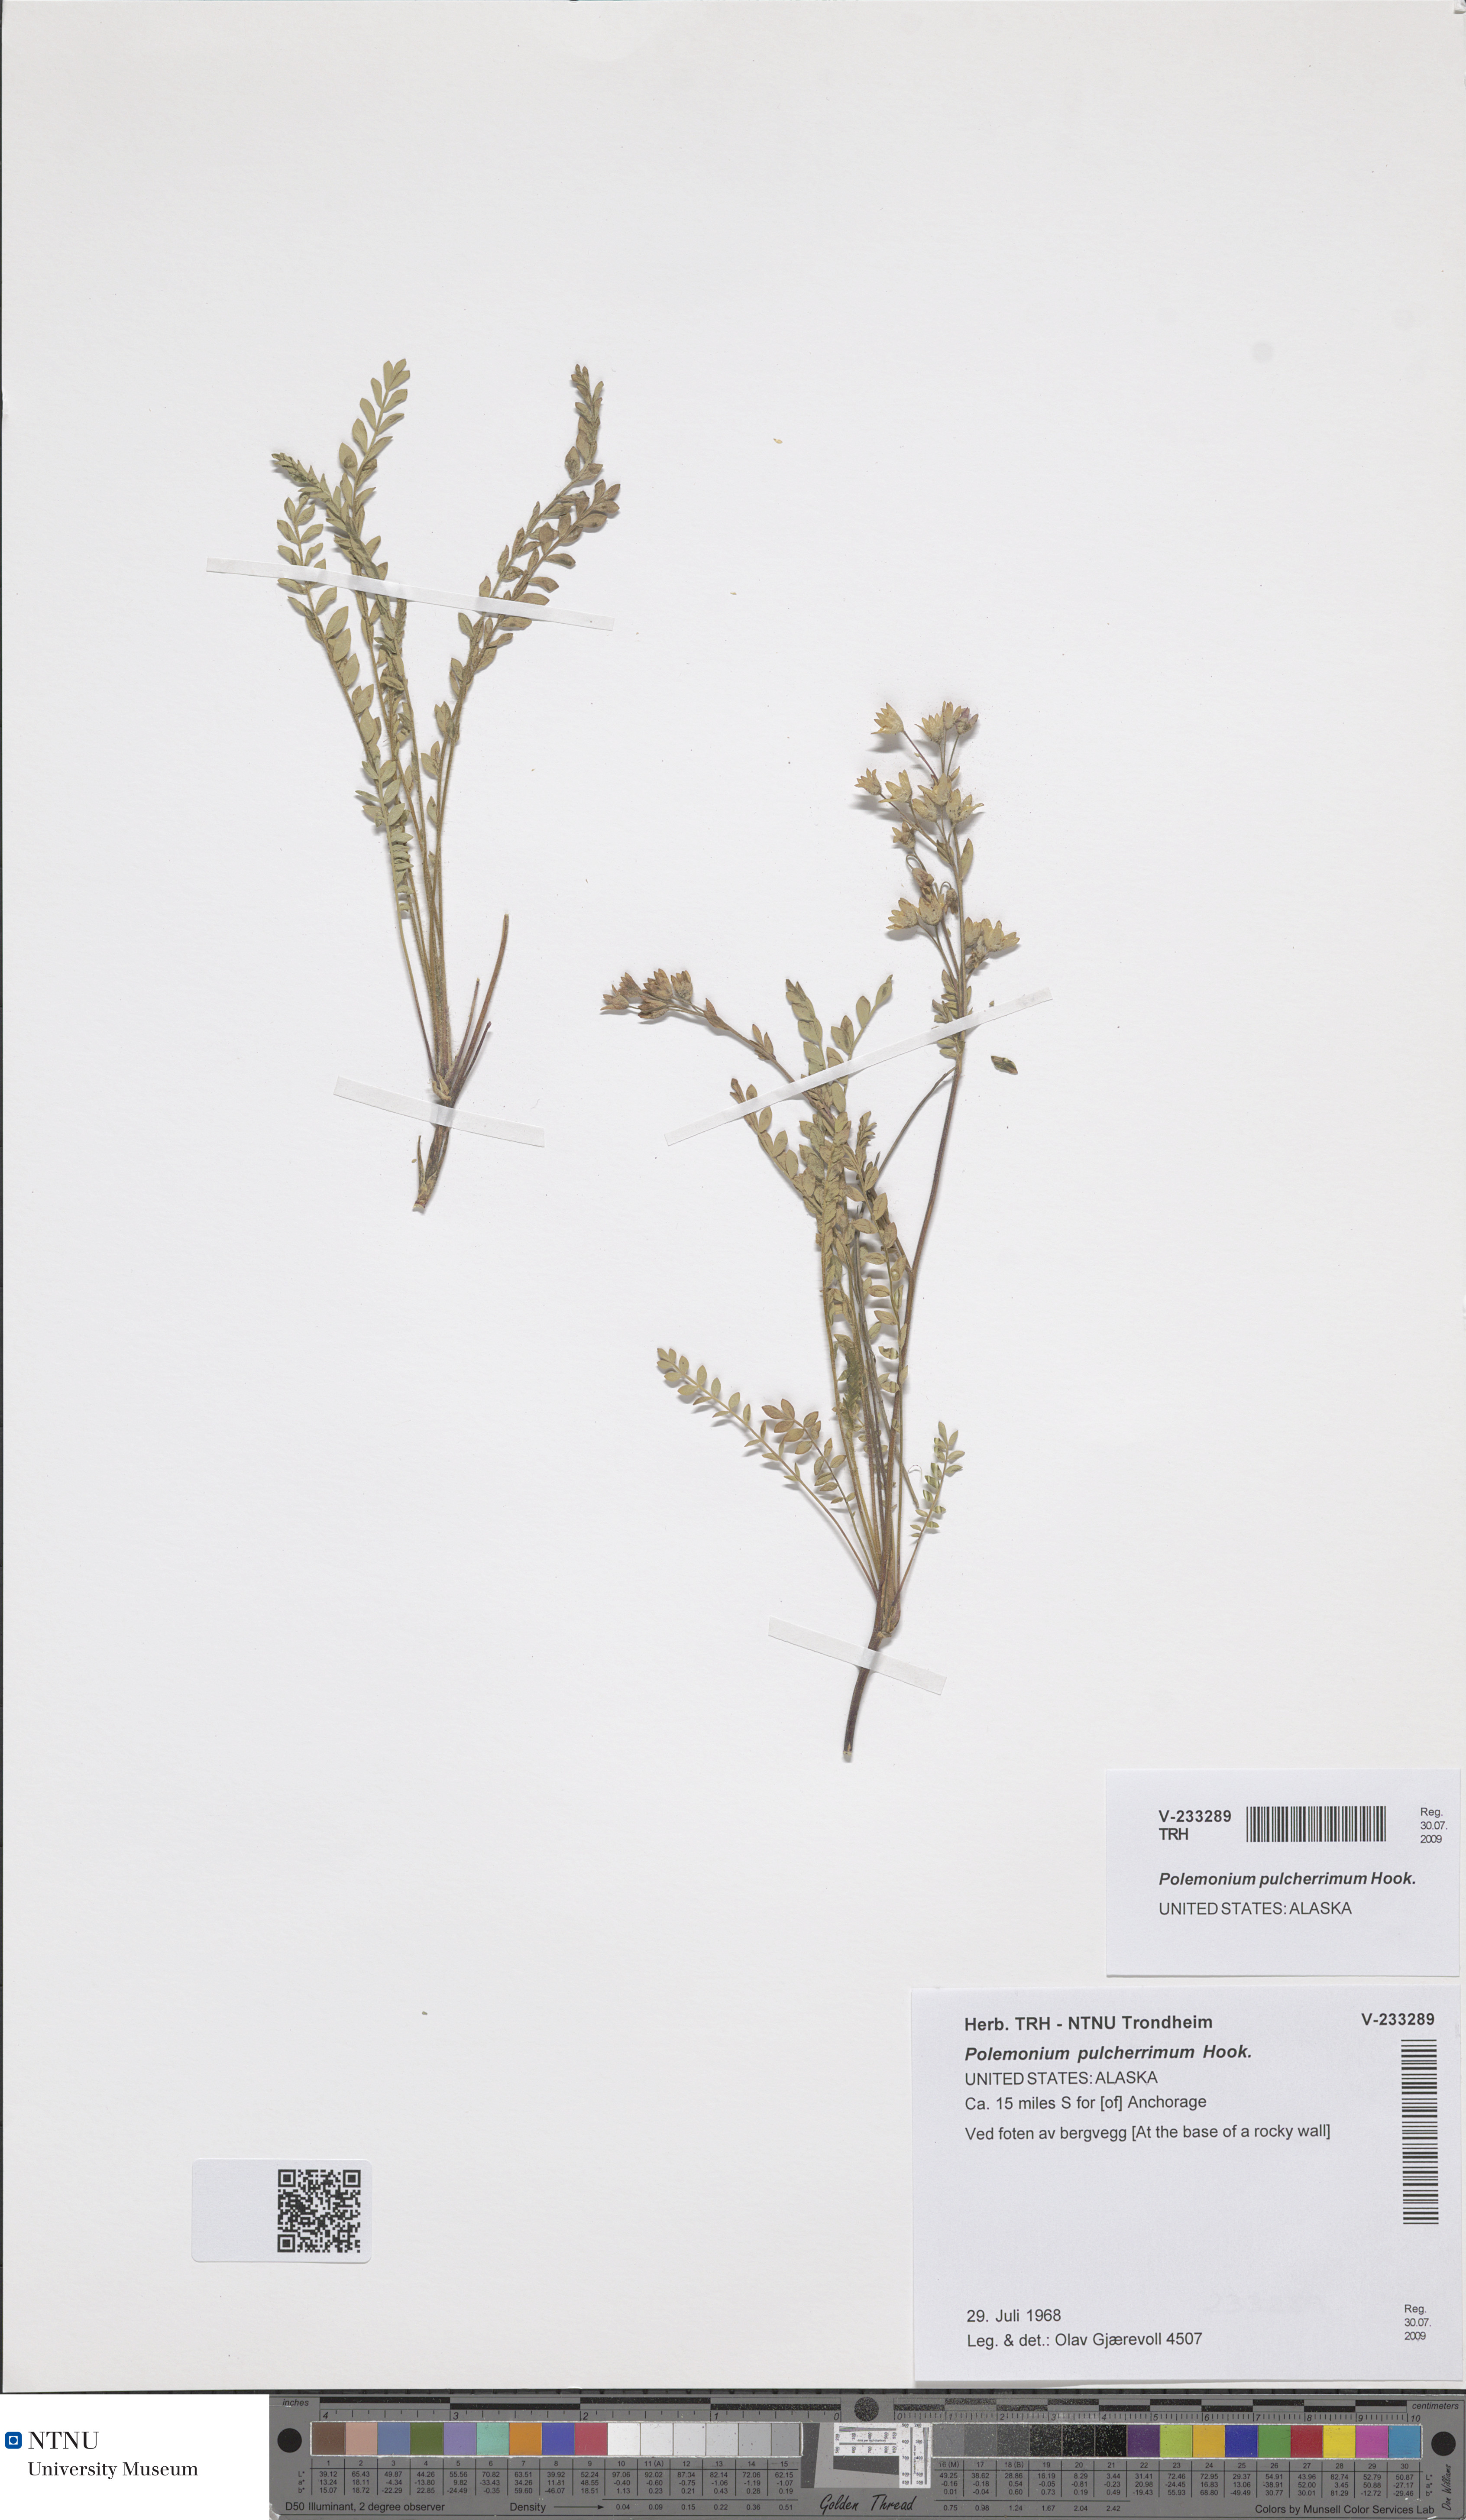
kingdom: Plantae
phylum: Tracheophyta
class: Magnoliopsida
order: Ericales
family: Polemoniaceae
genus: Polemonium
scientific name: Polemonium pulcherrimum
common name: Short jacob's-ladder
